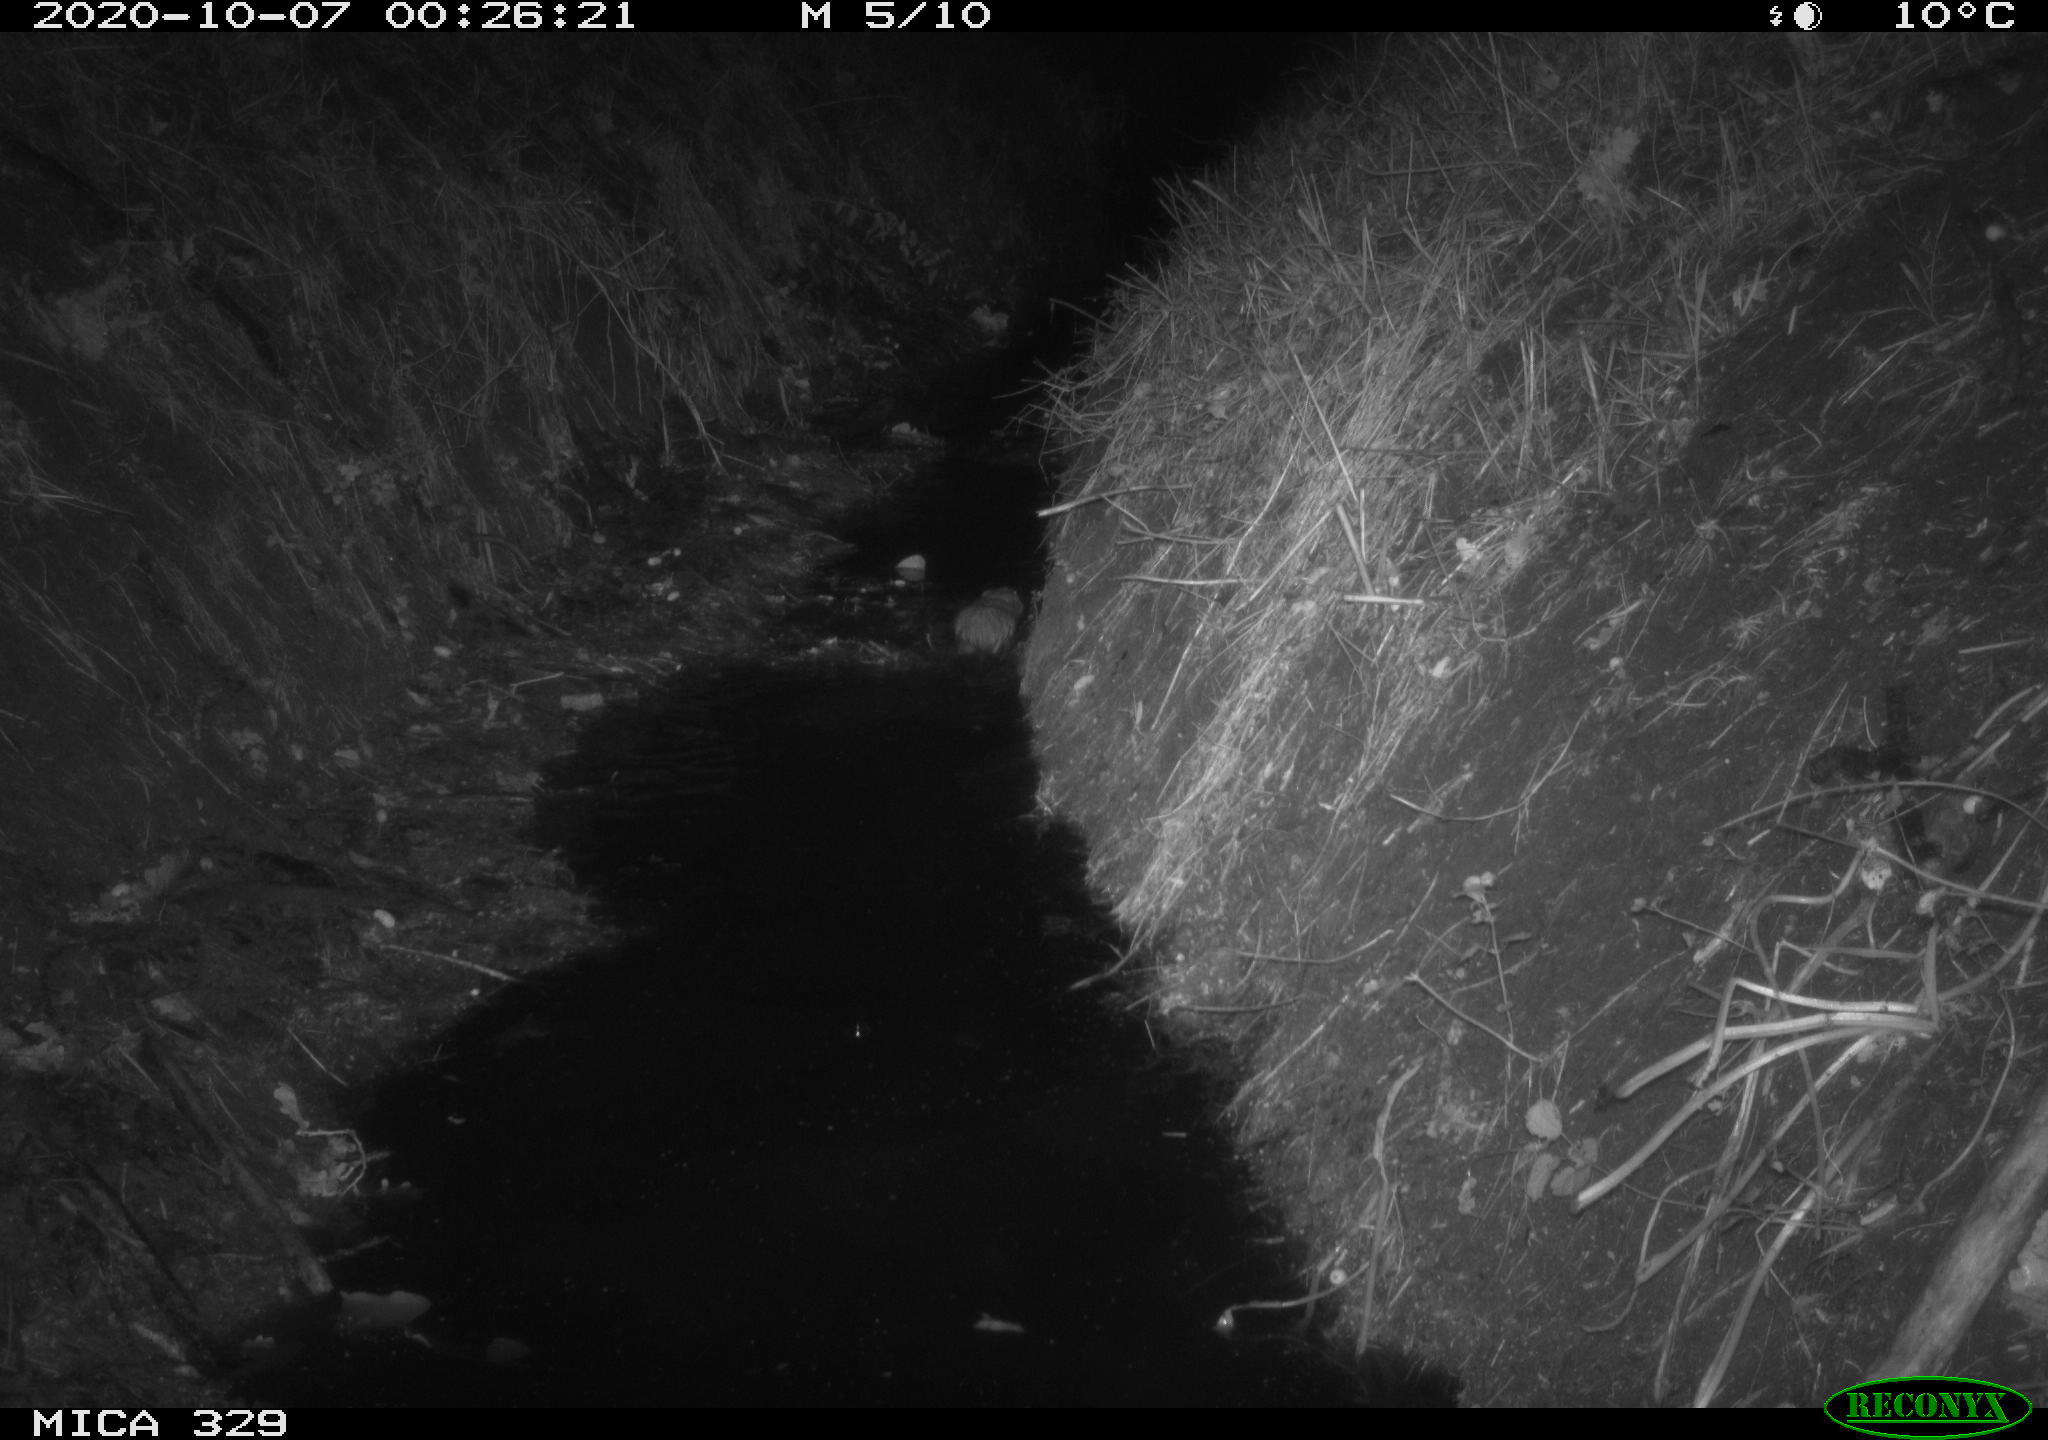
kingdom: Animalia
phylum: Chordata
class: Mammalia
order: Rodentia
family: Myocastoridae
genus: Myocastor
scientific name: Myocastor coypus
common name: Coypu
